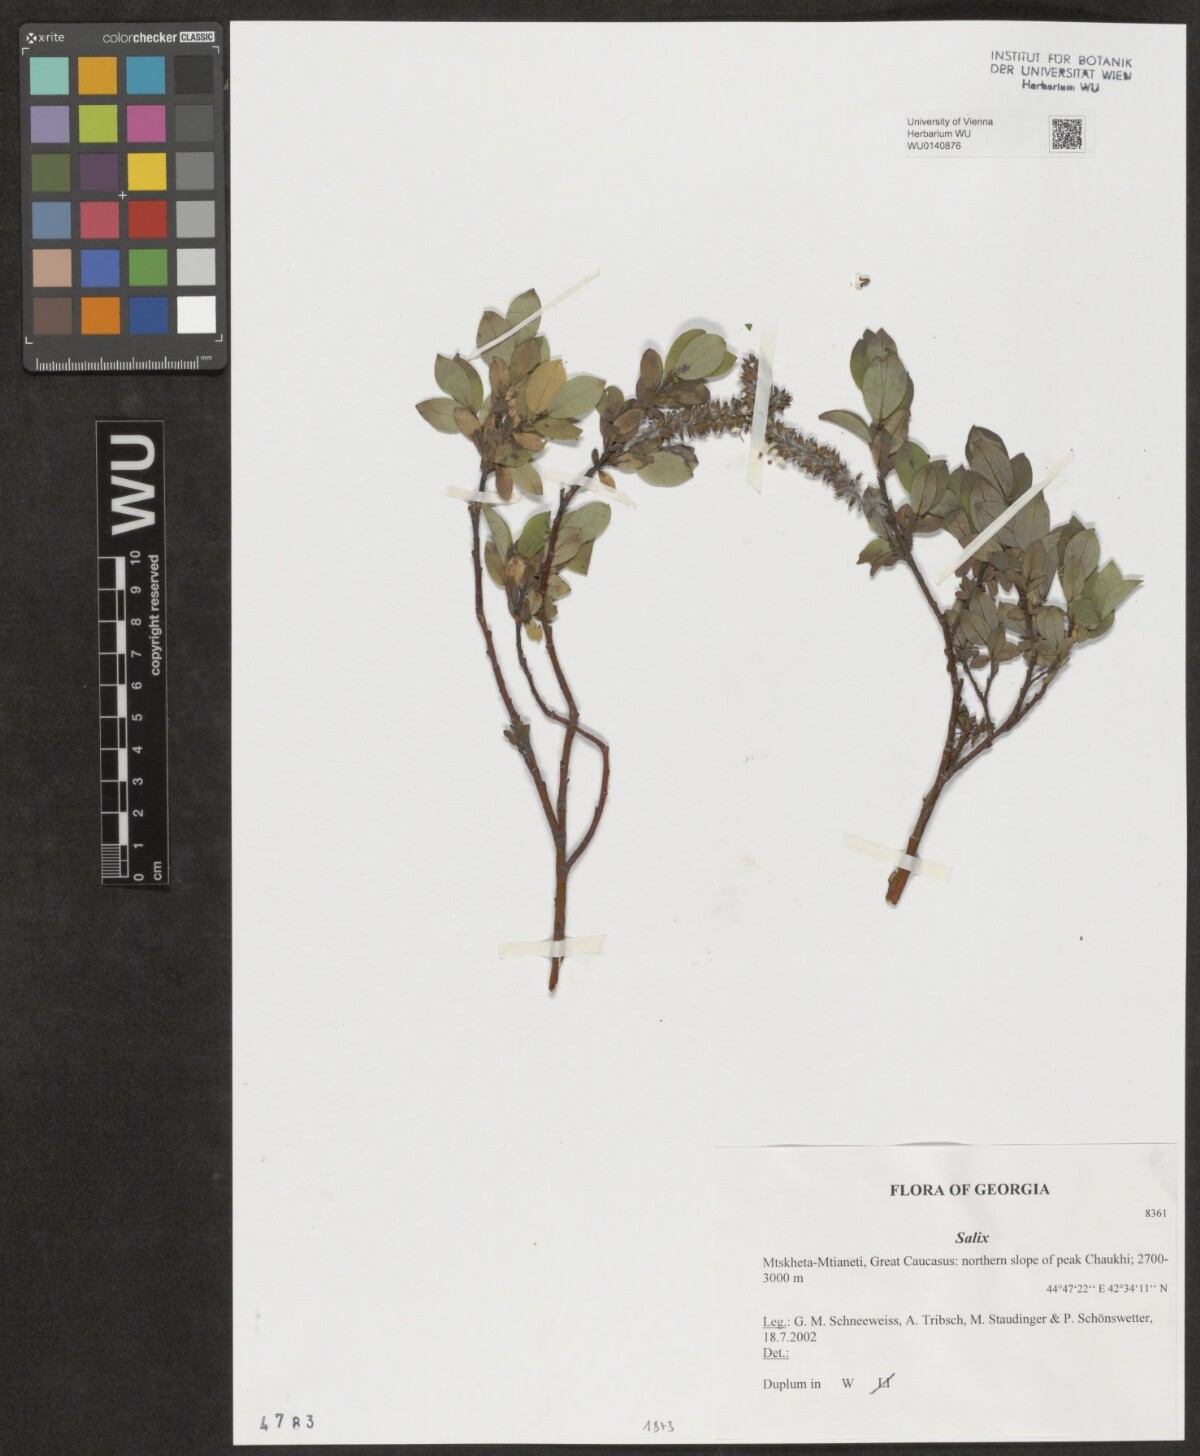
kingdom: Plantae
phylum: Tracheophyta
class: Magnoliopsida
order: Malpighiales
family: Salicaceae
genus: Salix
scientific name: Salix
